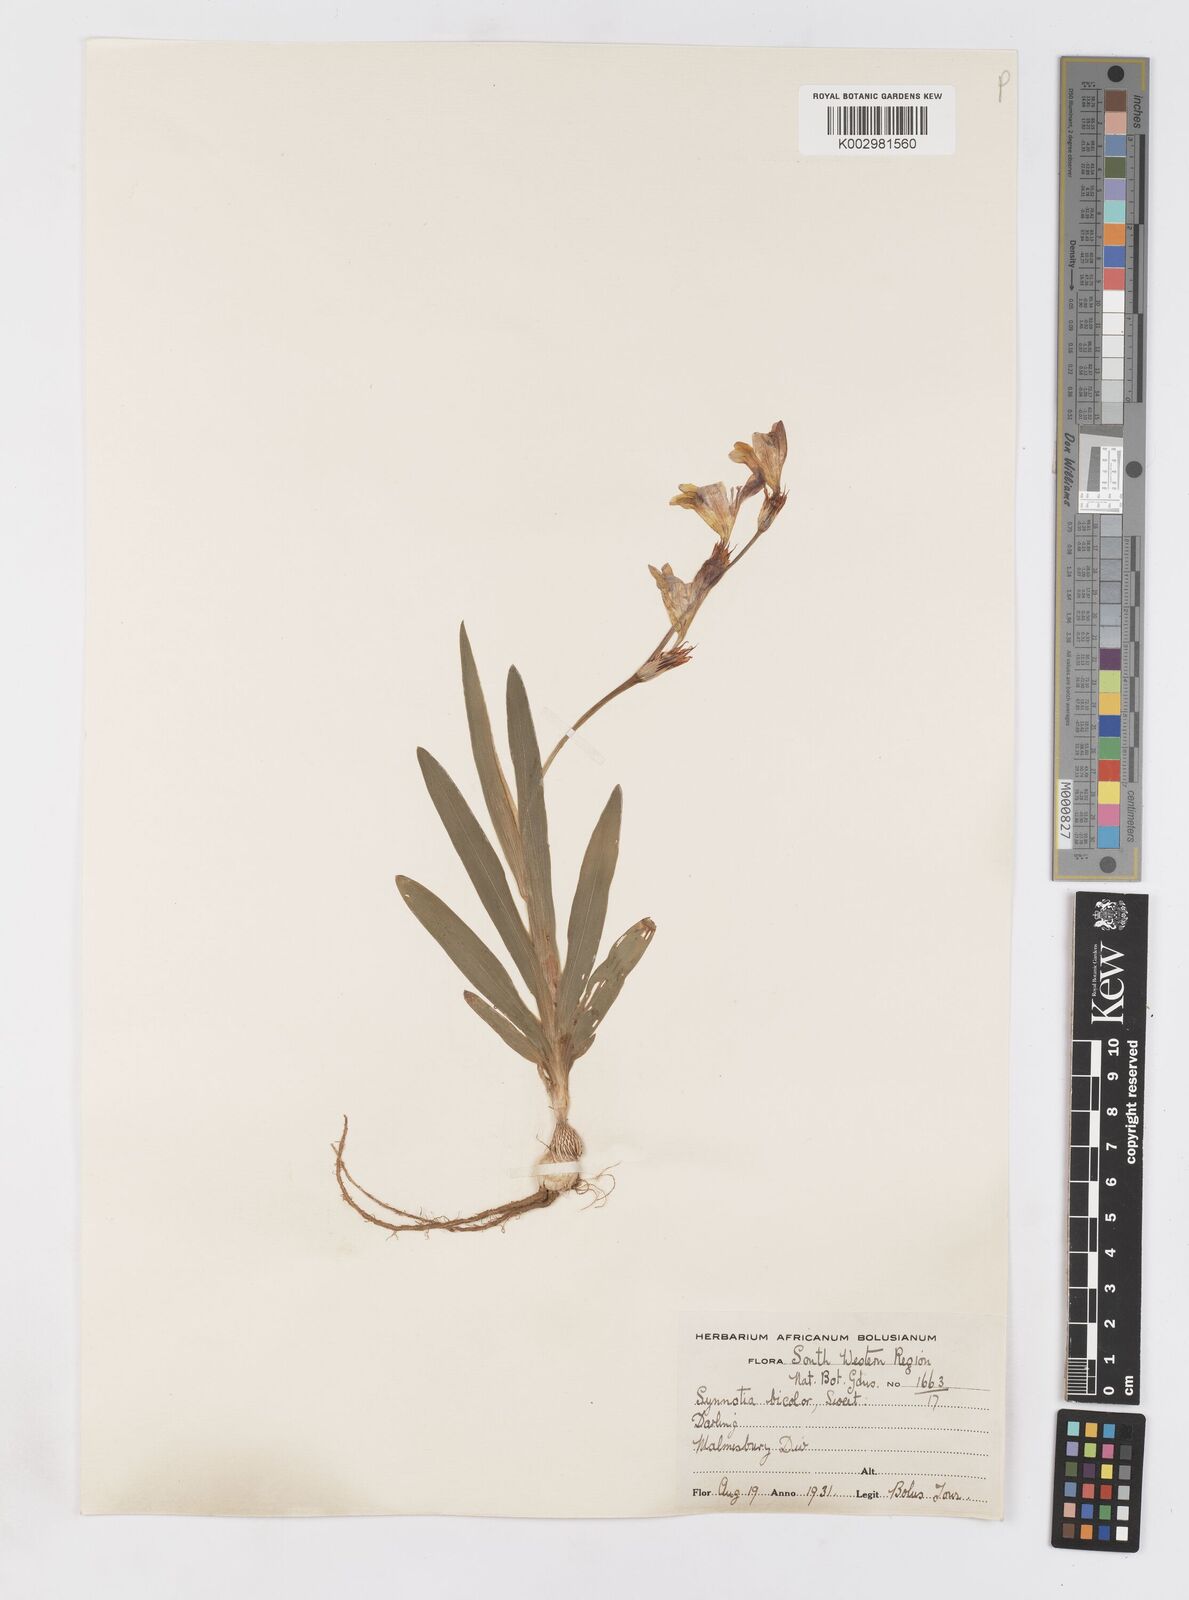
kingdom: Plantae
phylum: Tracheophyta
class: Liliopsida
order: Asparagales
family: Iridaceae
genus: Sparaxis
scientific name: Sparaxis
